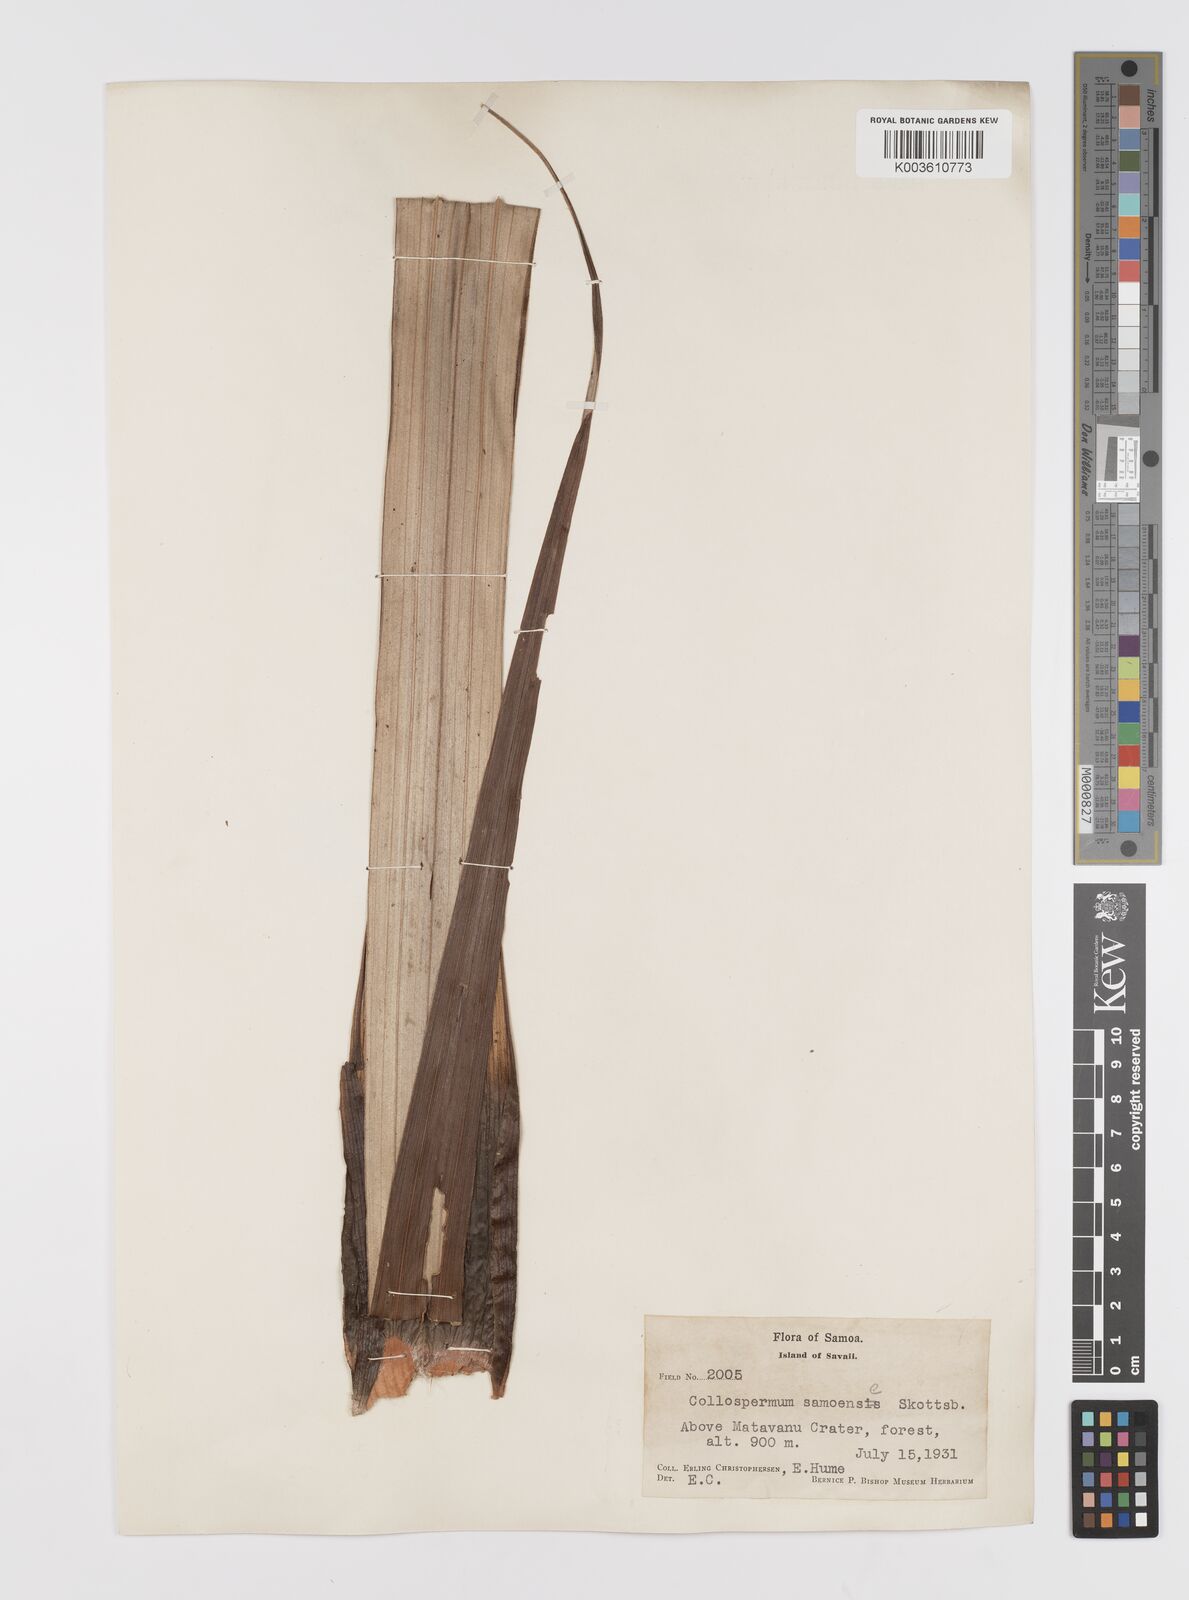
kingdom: Plantae
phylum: Tracheophyta
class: Liliopsida
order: Asparagales
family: Asteliaceae
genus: Astelia
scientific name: Astelia samoense
